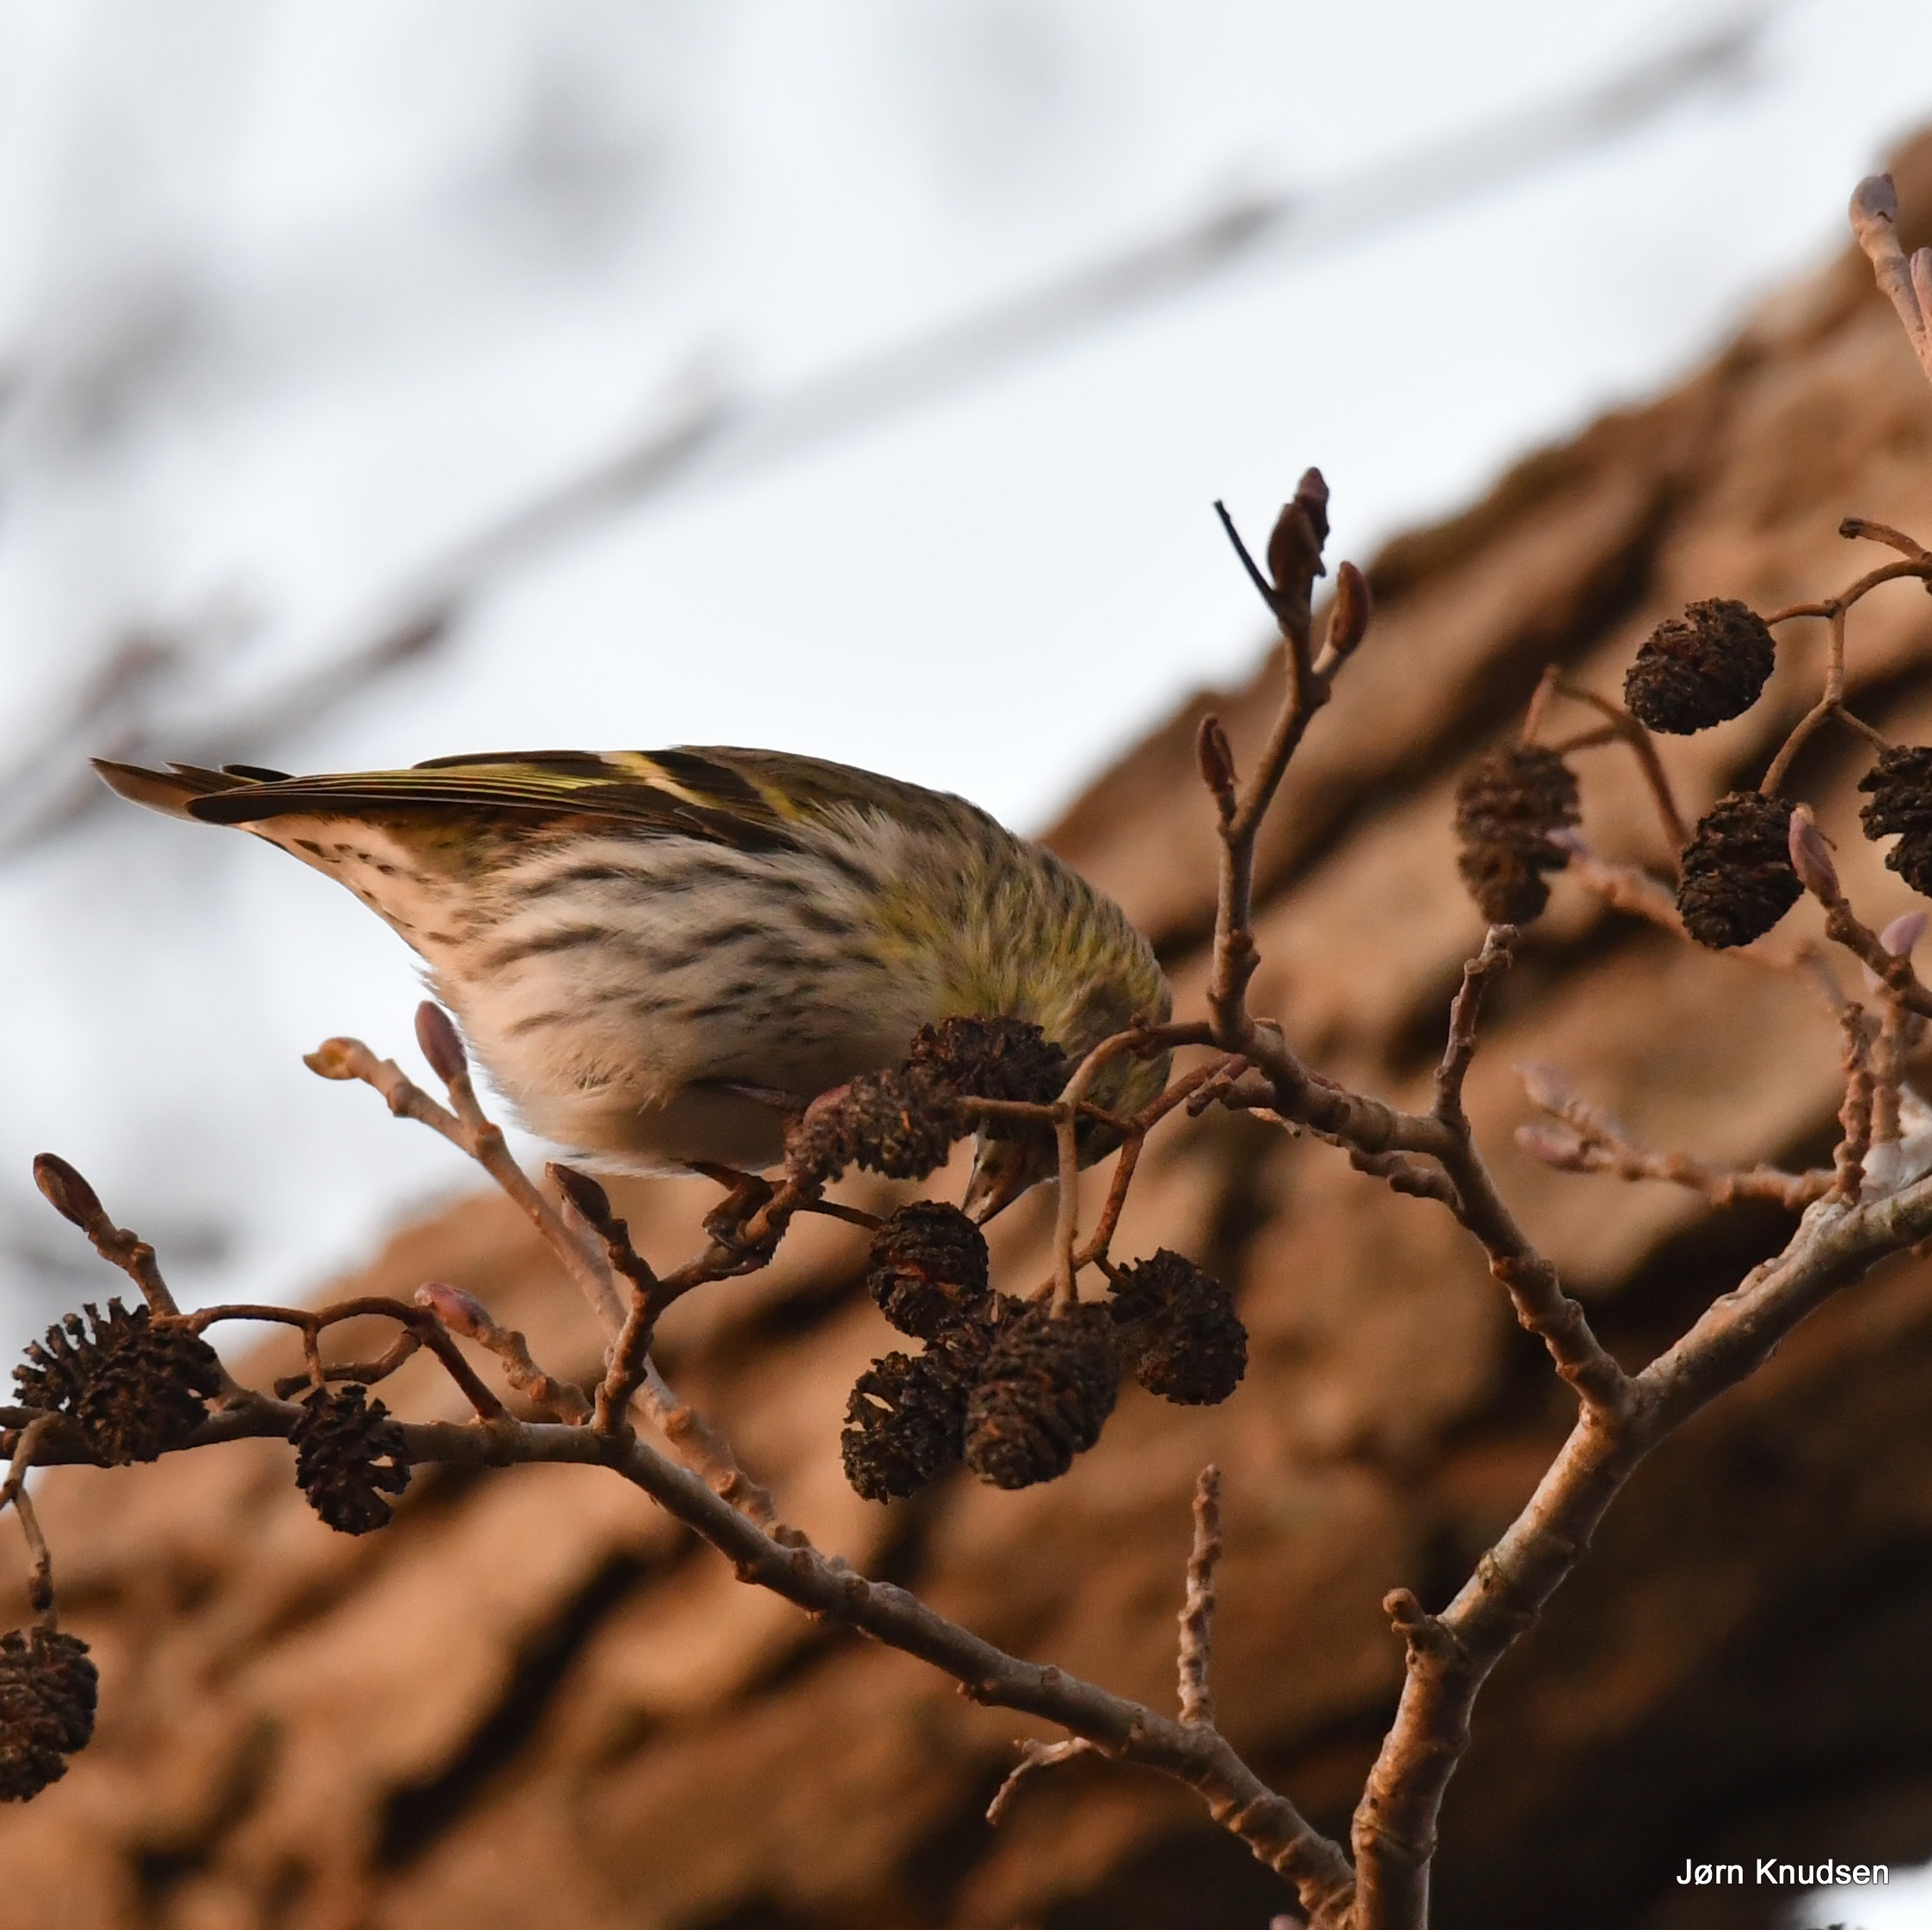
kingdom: Animalia
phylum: Chordata
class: Aves
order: Passeriformes
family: Fringillidae
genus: Spinus
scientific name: Spinus spinus
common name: Grønsisken
